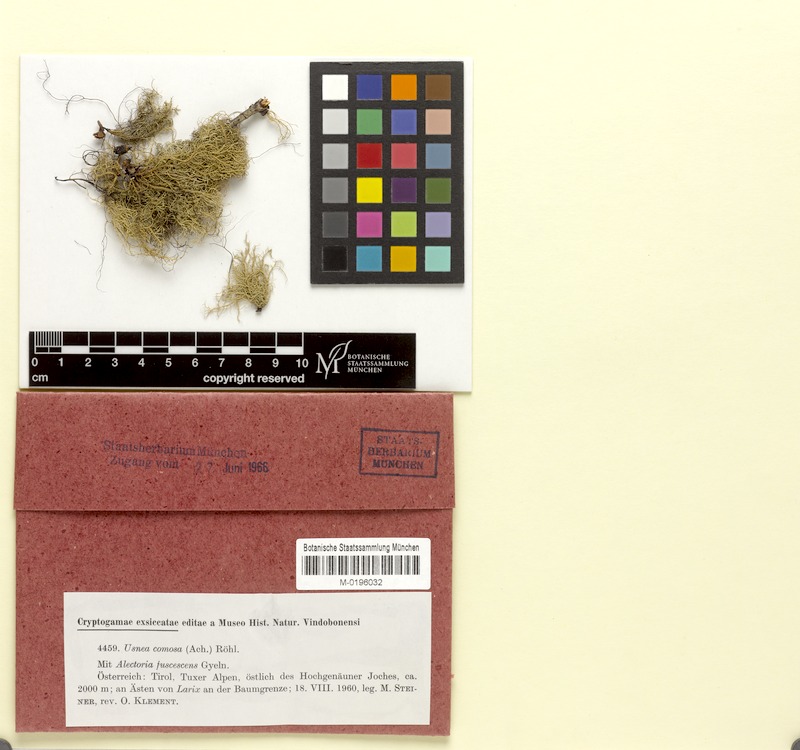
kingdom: Fungi
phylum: Ascomycota
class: Lecanoromycetes
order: Lecanorales
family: Parmeliaceae
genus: Usnea
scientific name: Usnea subfloridana
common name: Boreal beard lichen
